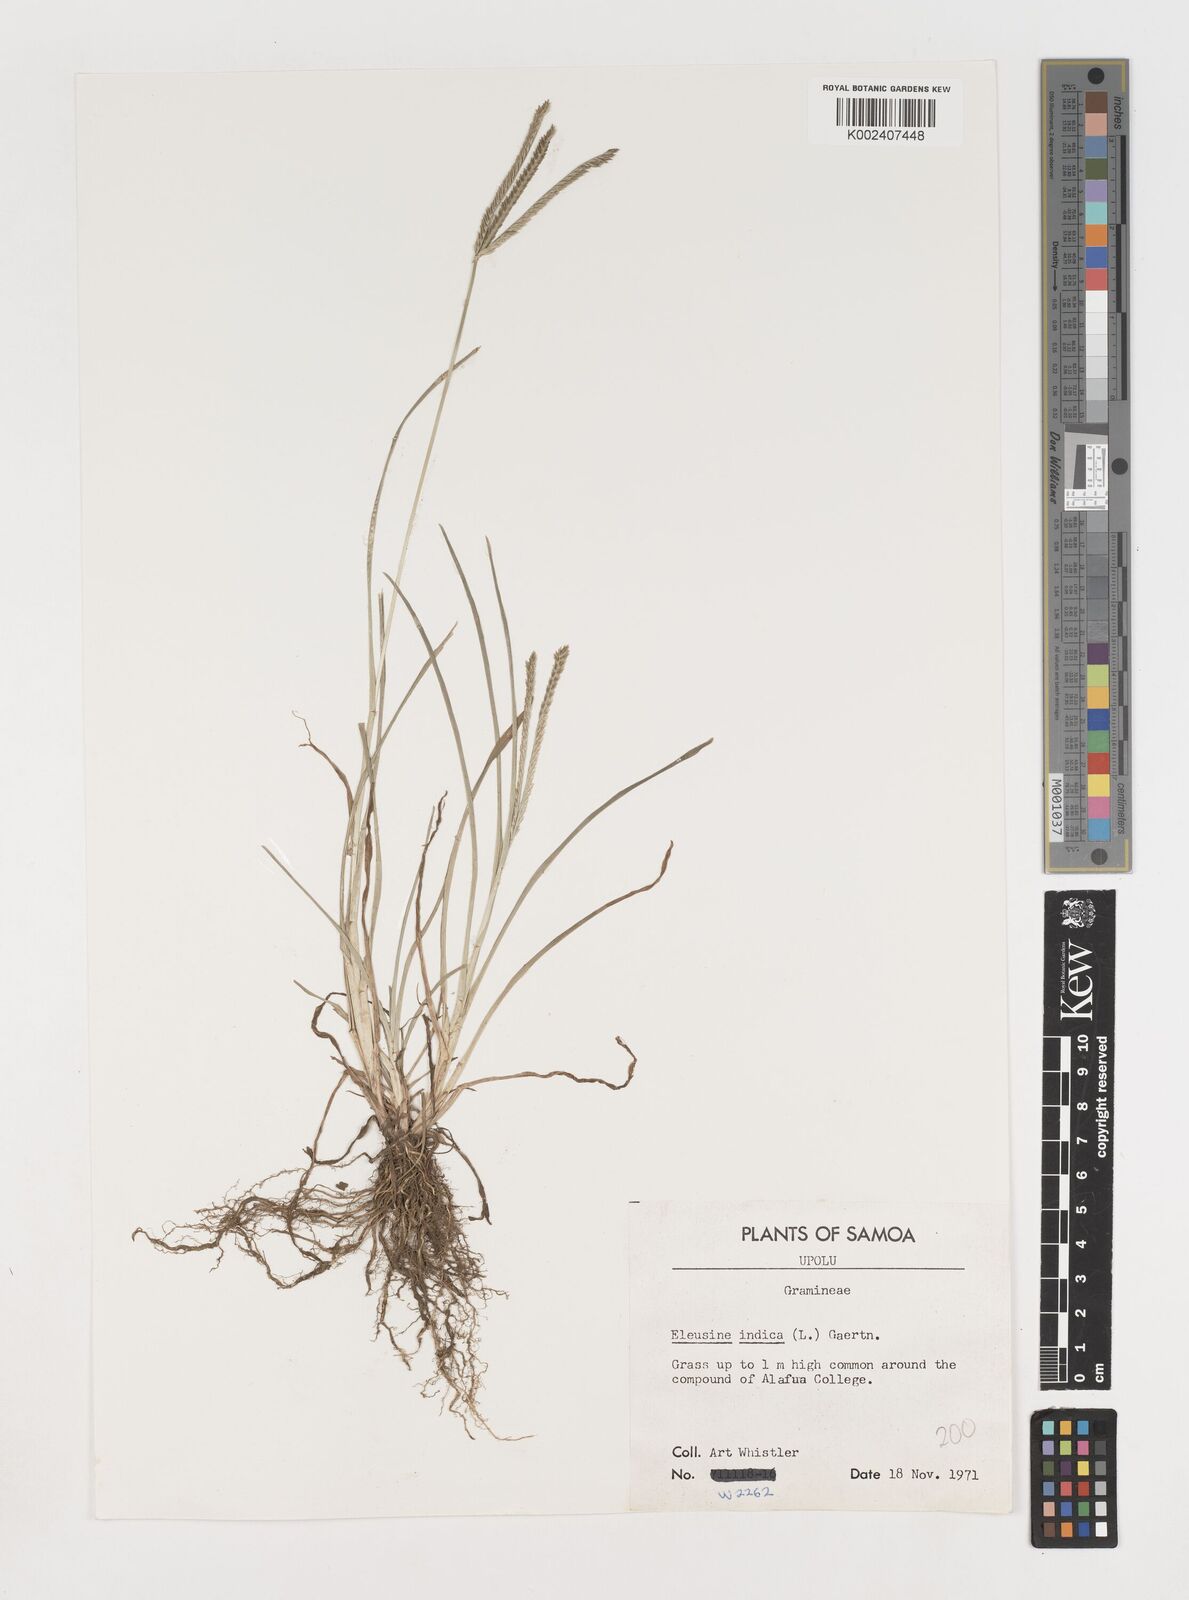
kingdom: Plantae
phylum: Tracheophyta
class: Liliopsida
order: Poales
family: Poaceae
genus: Eleusine
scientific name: Eleusine indica
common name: Yard-grass
